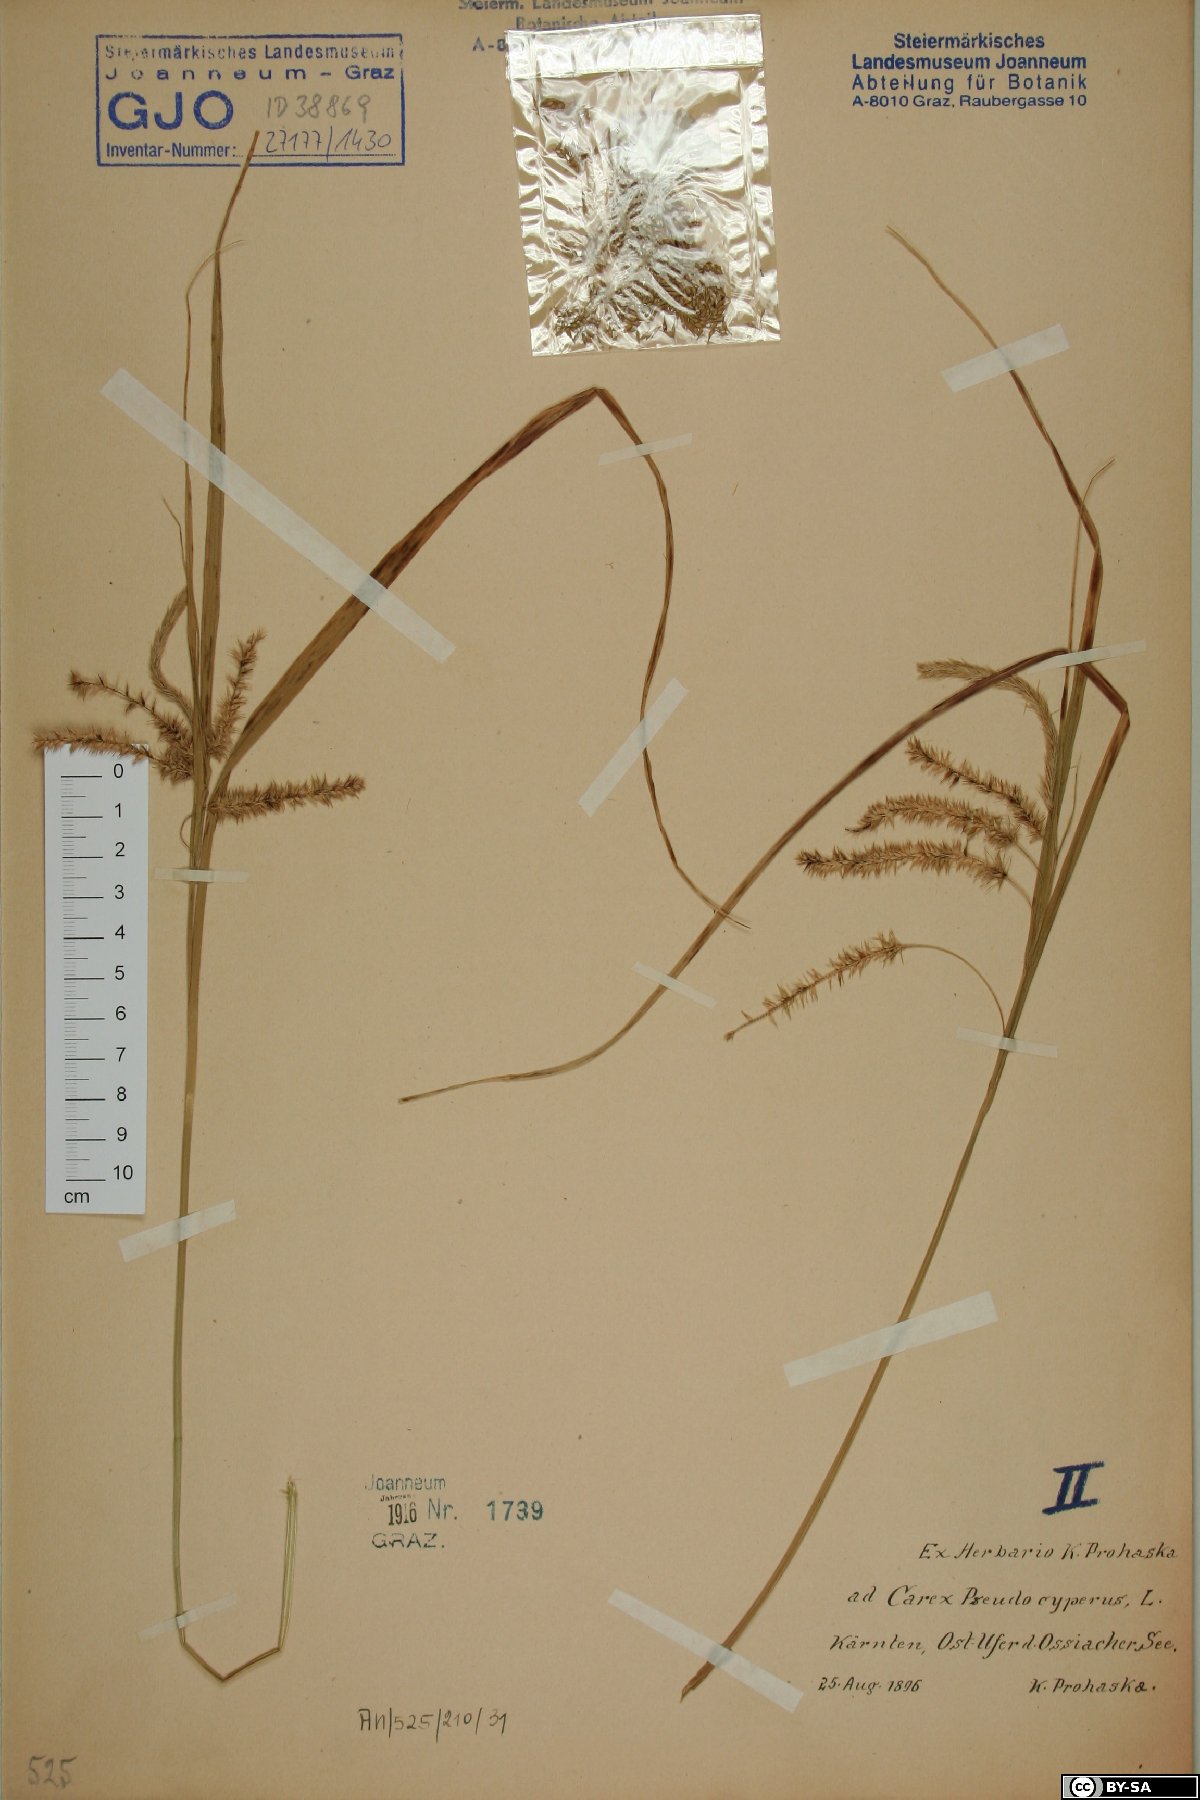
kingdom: Plantae
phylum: Tracheophyta
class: Liliopsida
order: Poales
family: Cyperaceae
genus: Carex
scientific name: Carex pseudocyperus
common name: Cyperus sedge
